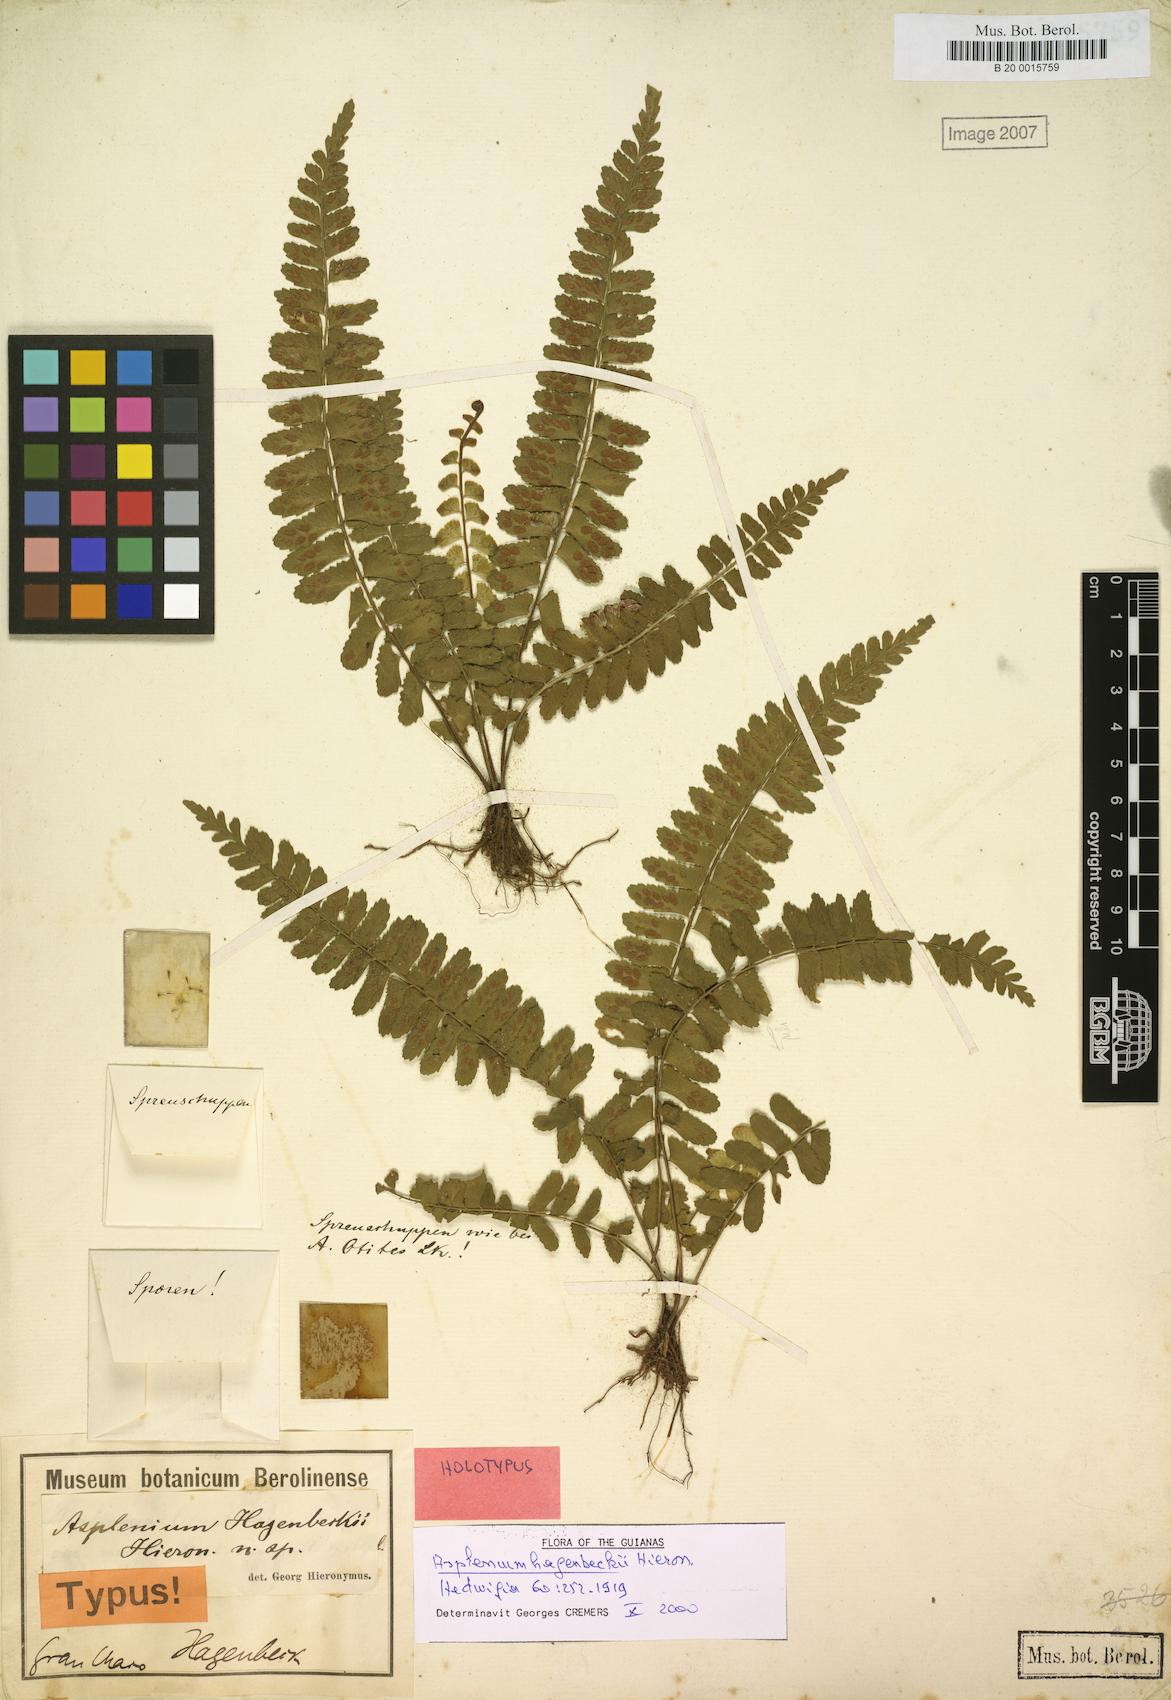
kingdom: Plantae
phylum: Tracheophyta
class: Polypodiopsida
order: Polypodiales
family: Aspleniaceae
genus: Asplenium
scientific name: Asplenium hagenbeckii
